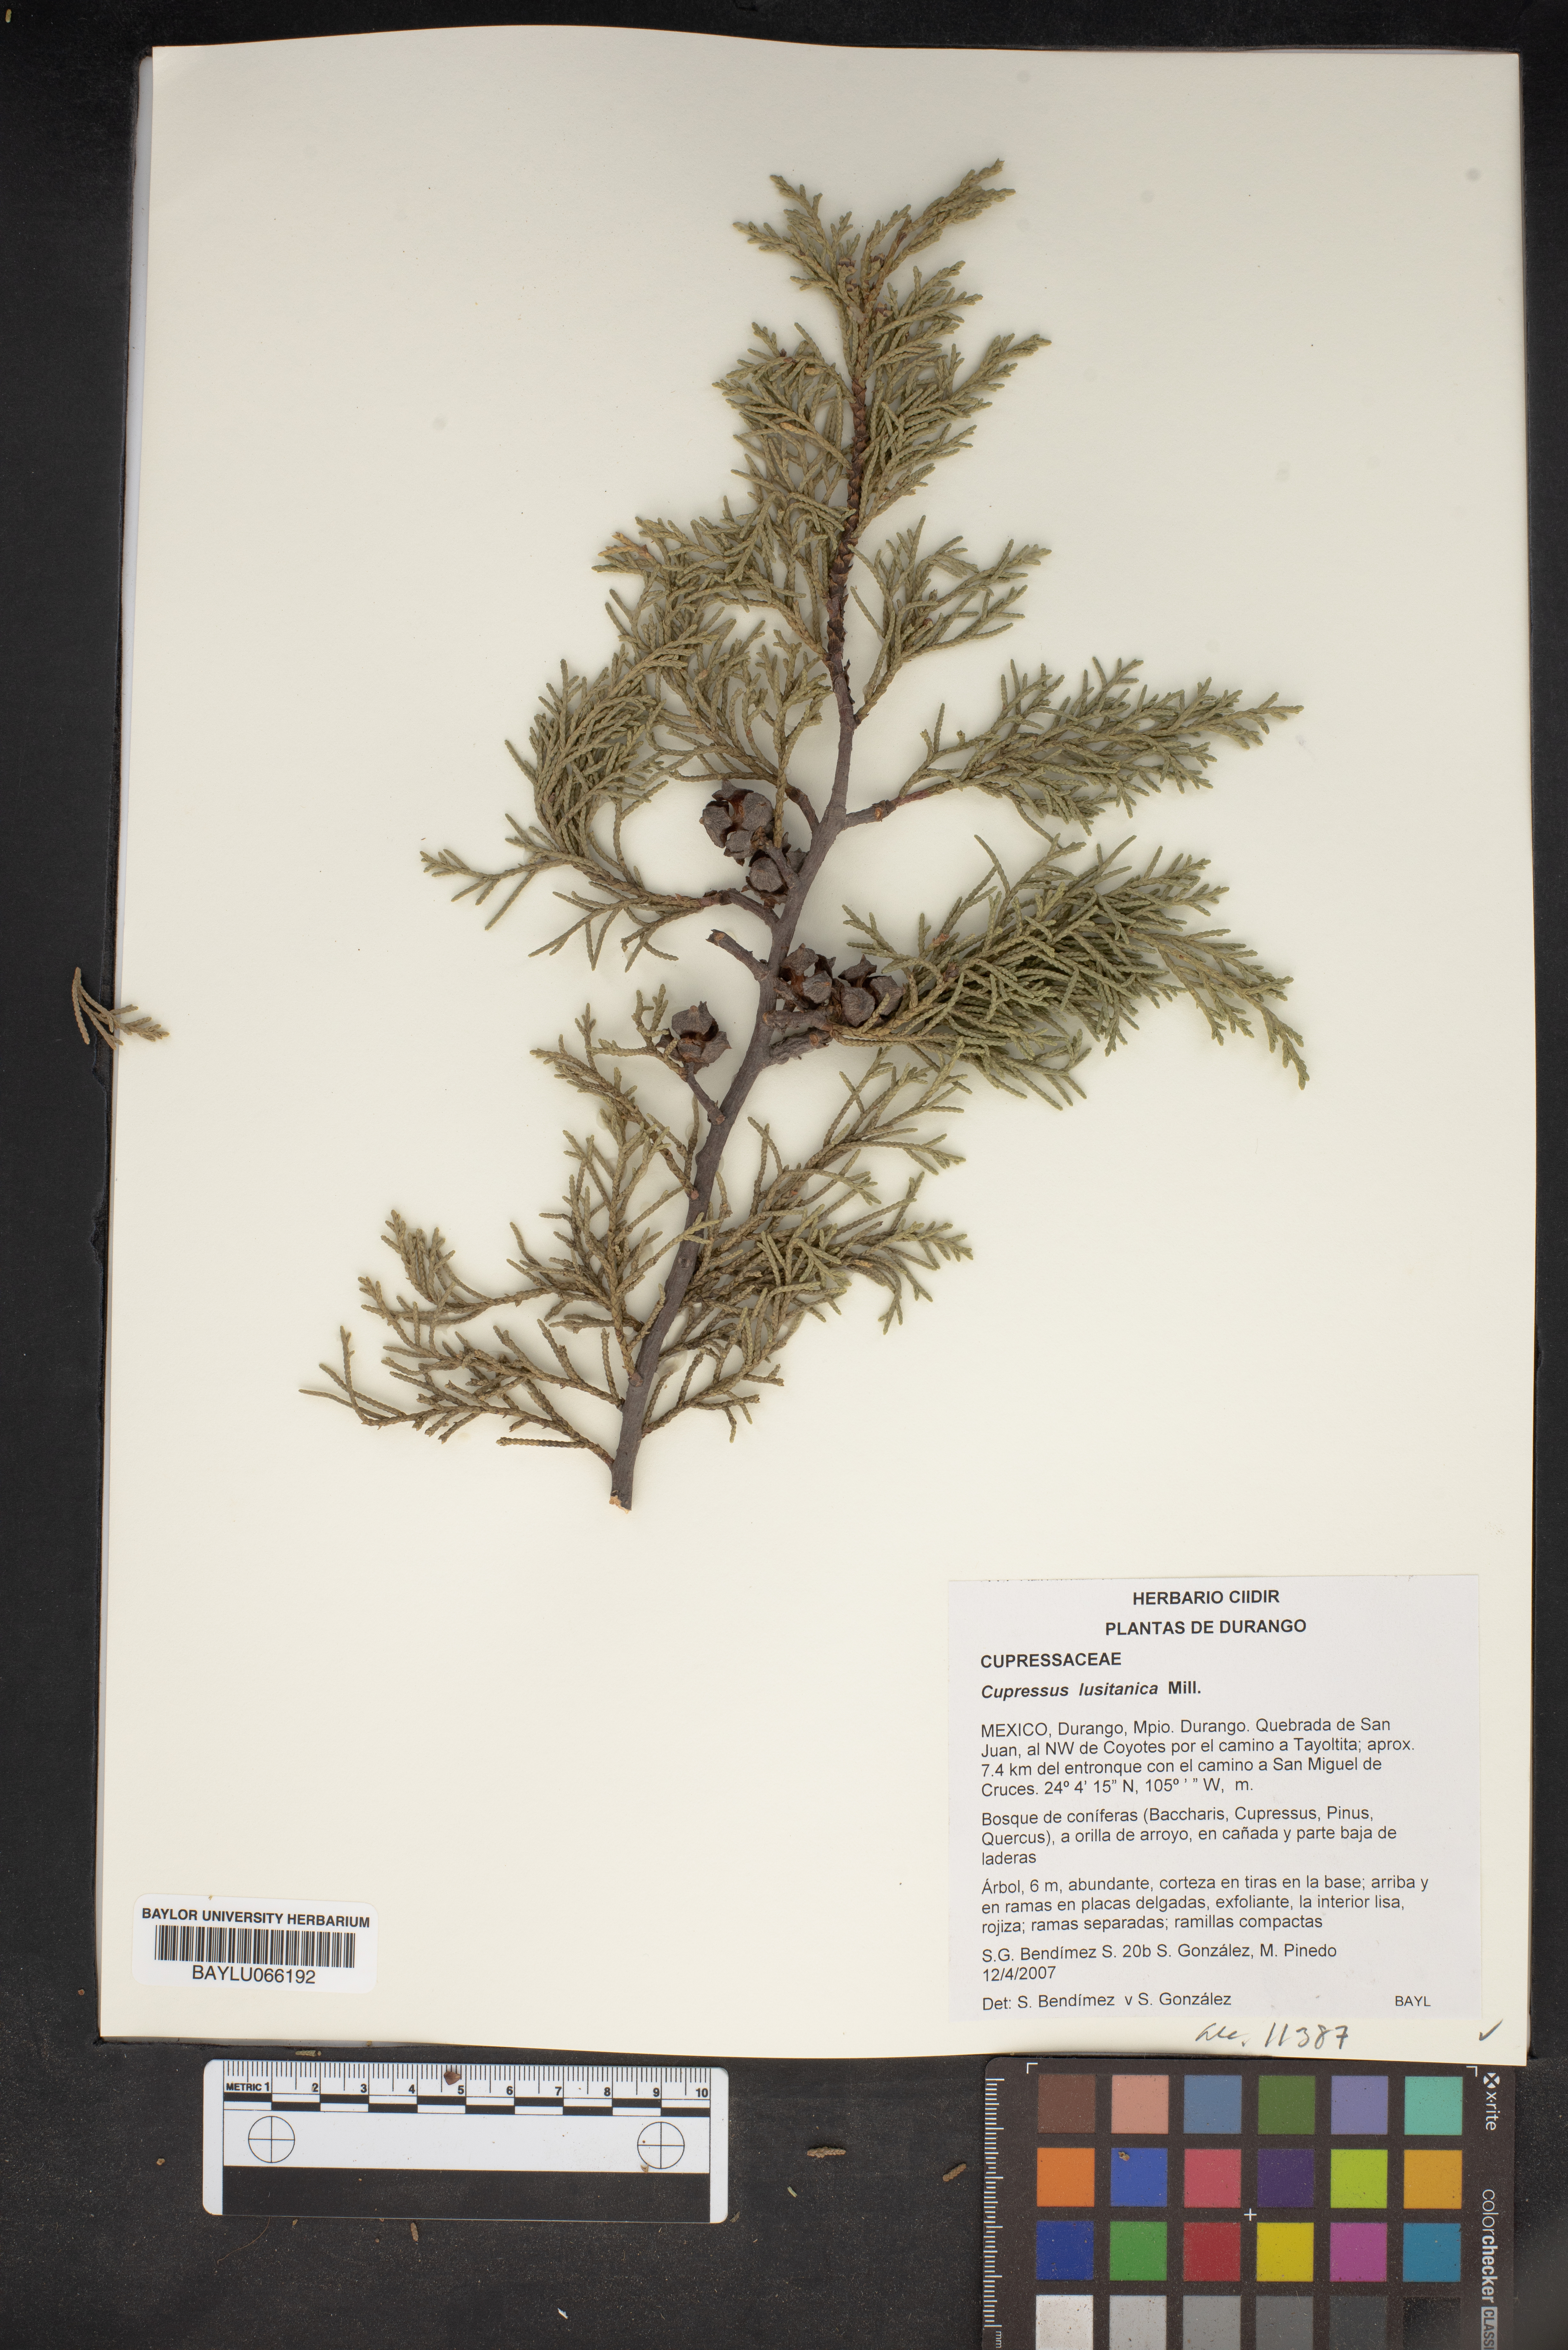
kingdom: Plantae
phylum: Tracheophyta
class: Pinopsida
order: Pinales
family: Cupressaceae
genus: Cupressus
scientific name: Cupressus lusitanica
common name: Mexican cypress
